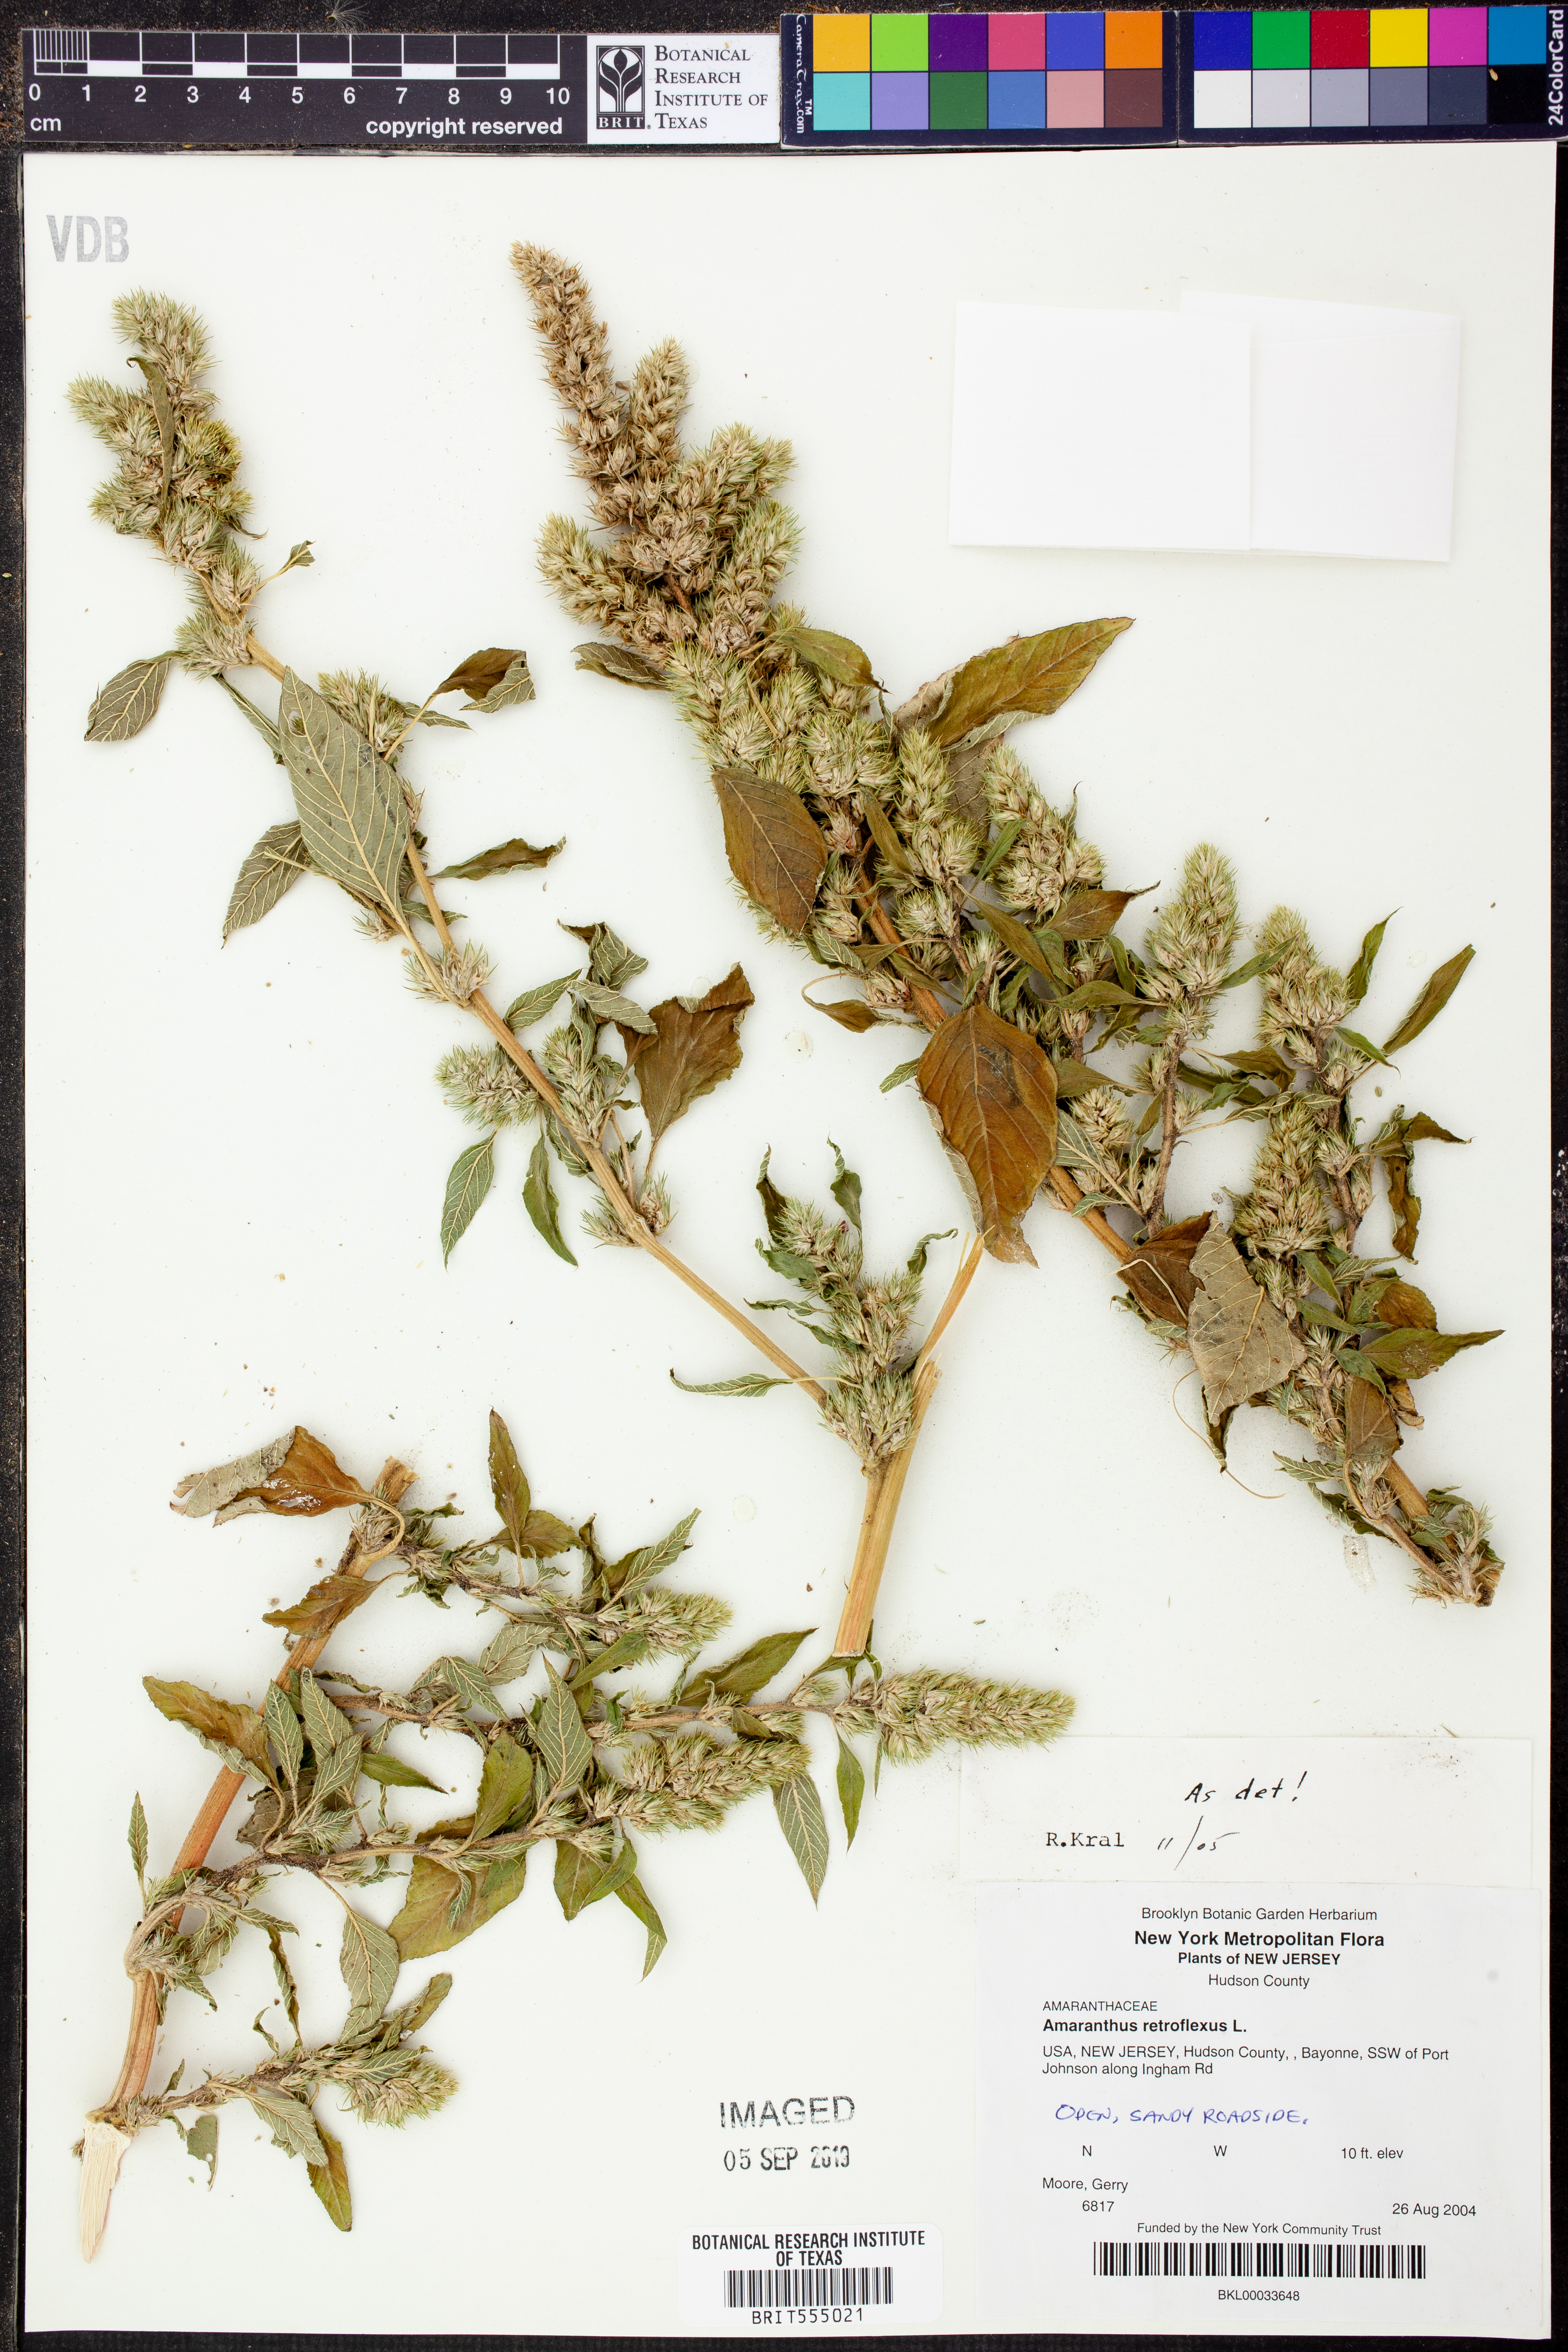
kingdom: Plantae
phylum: Tracheophyta
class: Magnoliopsida
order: Caryophyllales
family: Amaranthaceae
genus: Amaranthus
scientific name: Amaranthus retroflexus
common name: Redroot amaranth
